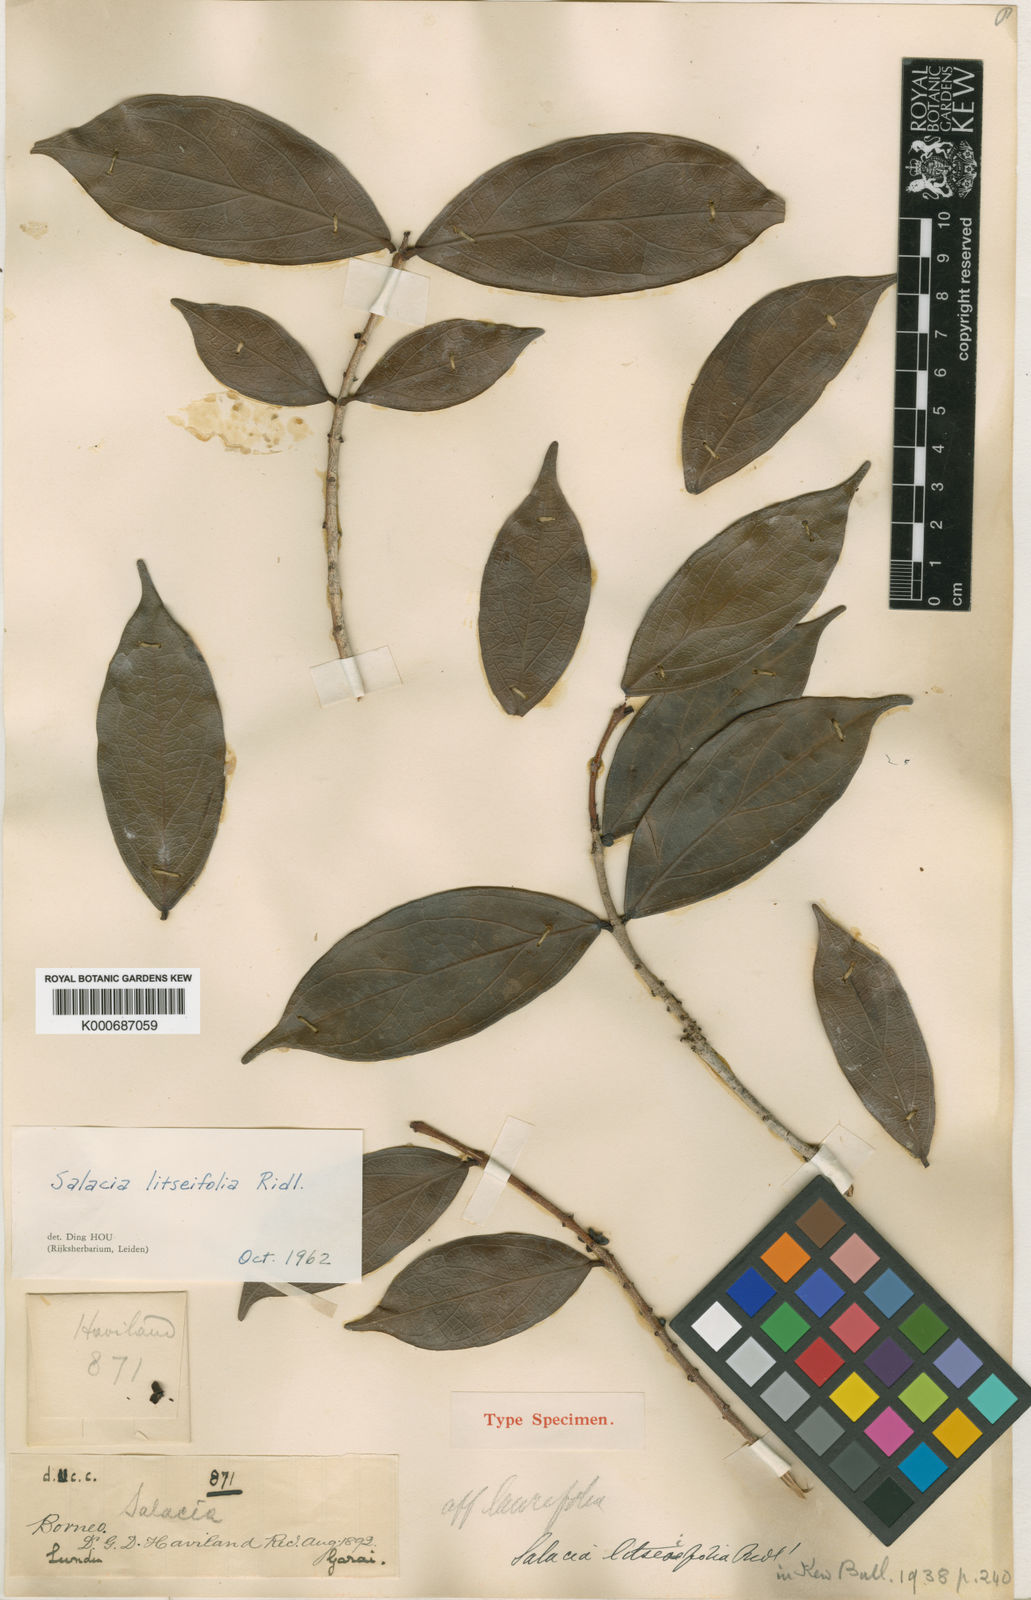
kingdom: Plantae
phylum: Tracheophyta
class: Magnoliopsida
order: Celastrales
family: Celastraceae
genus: Salacia
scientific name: Salacia leucoclada
